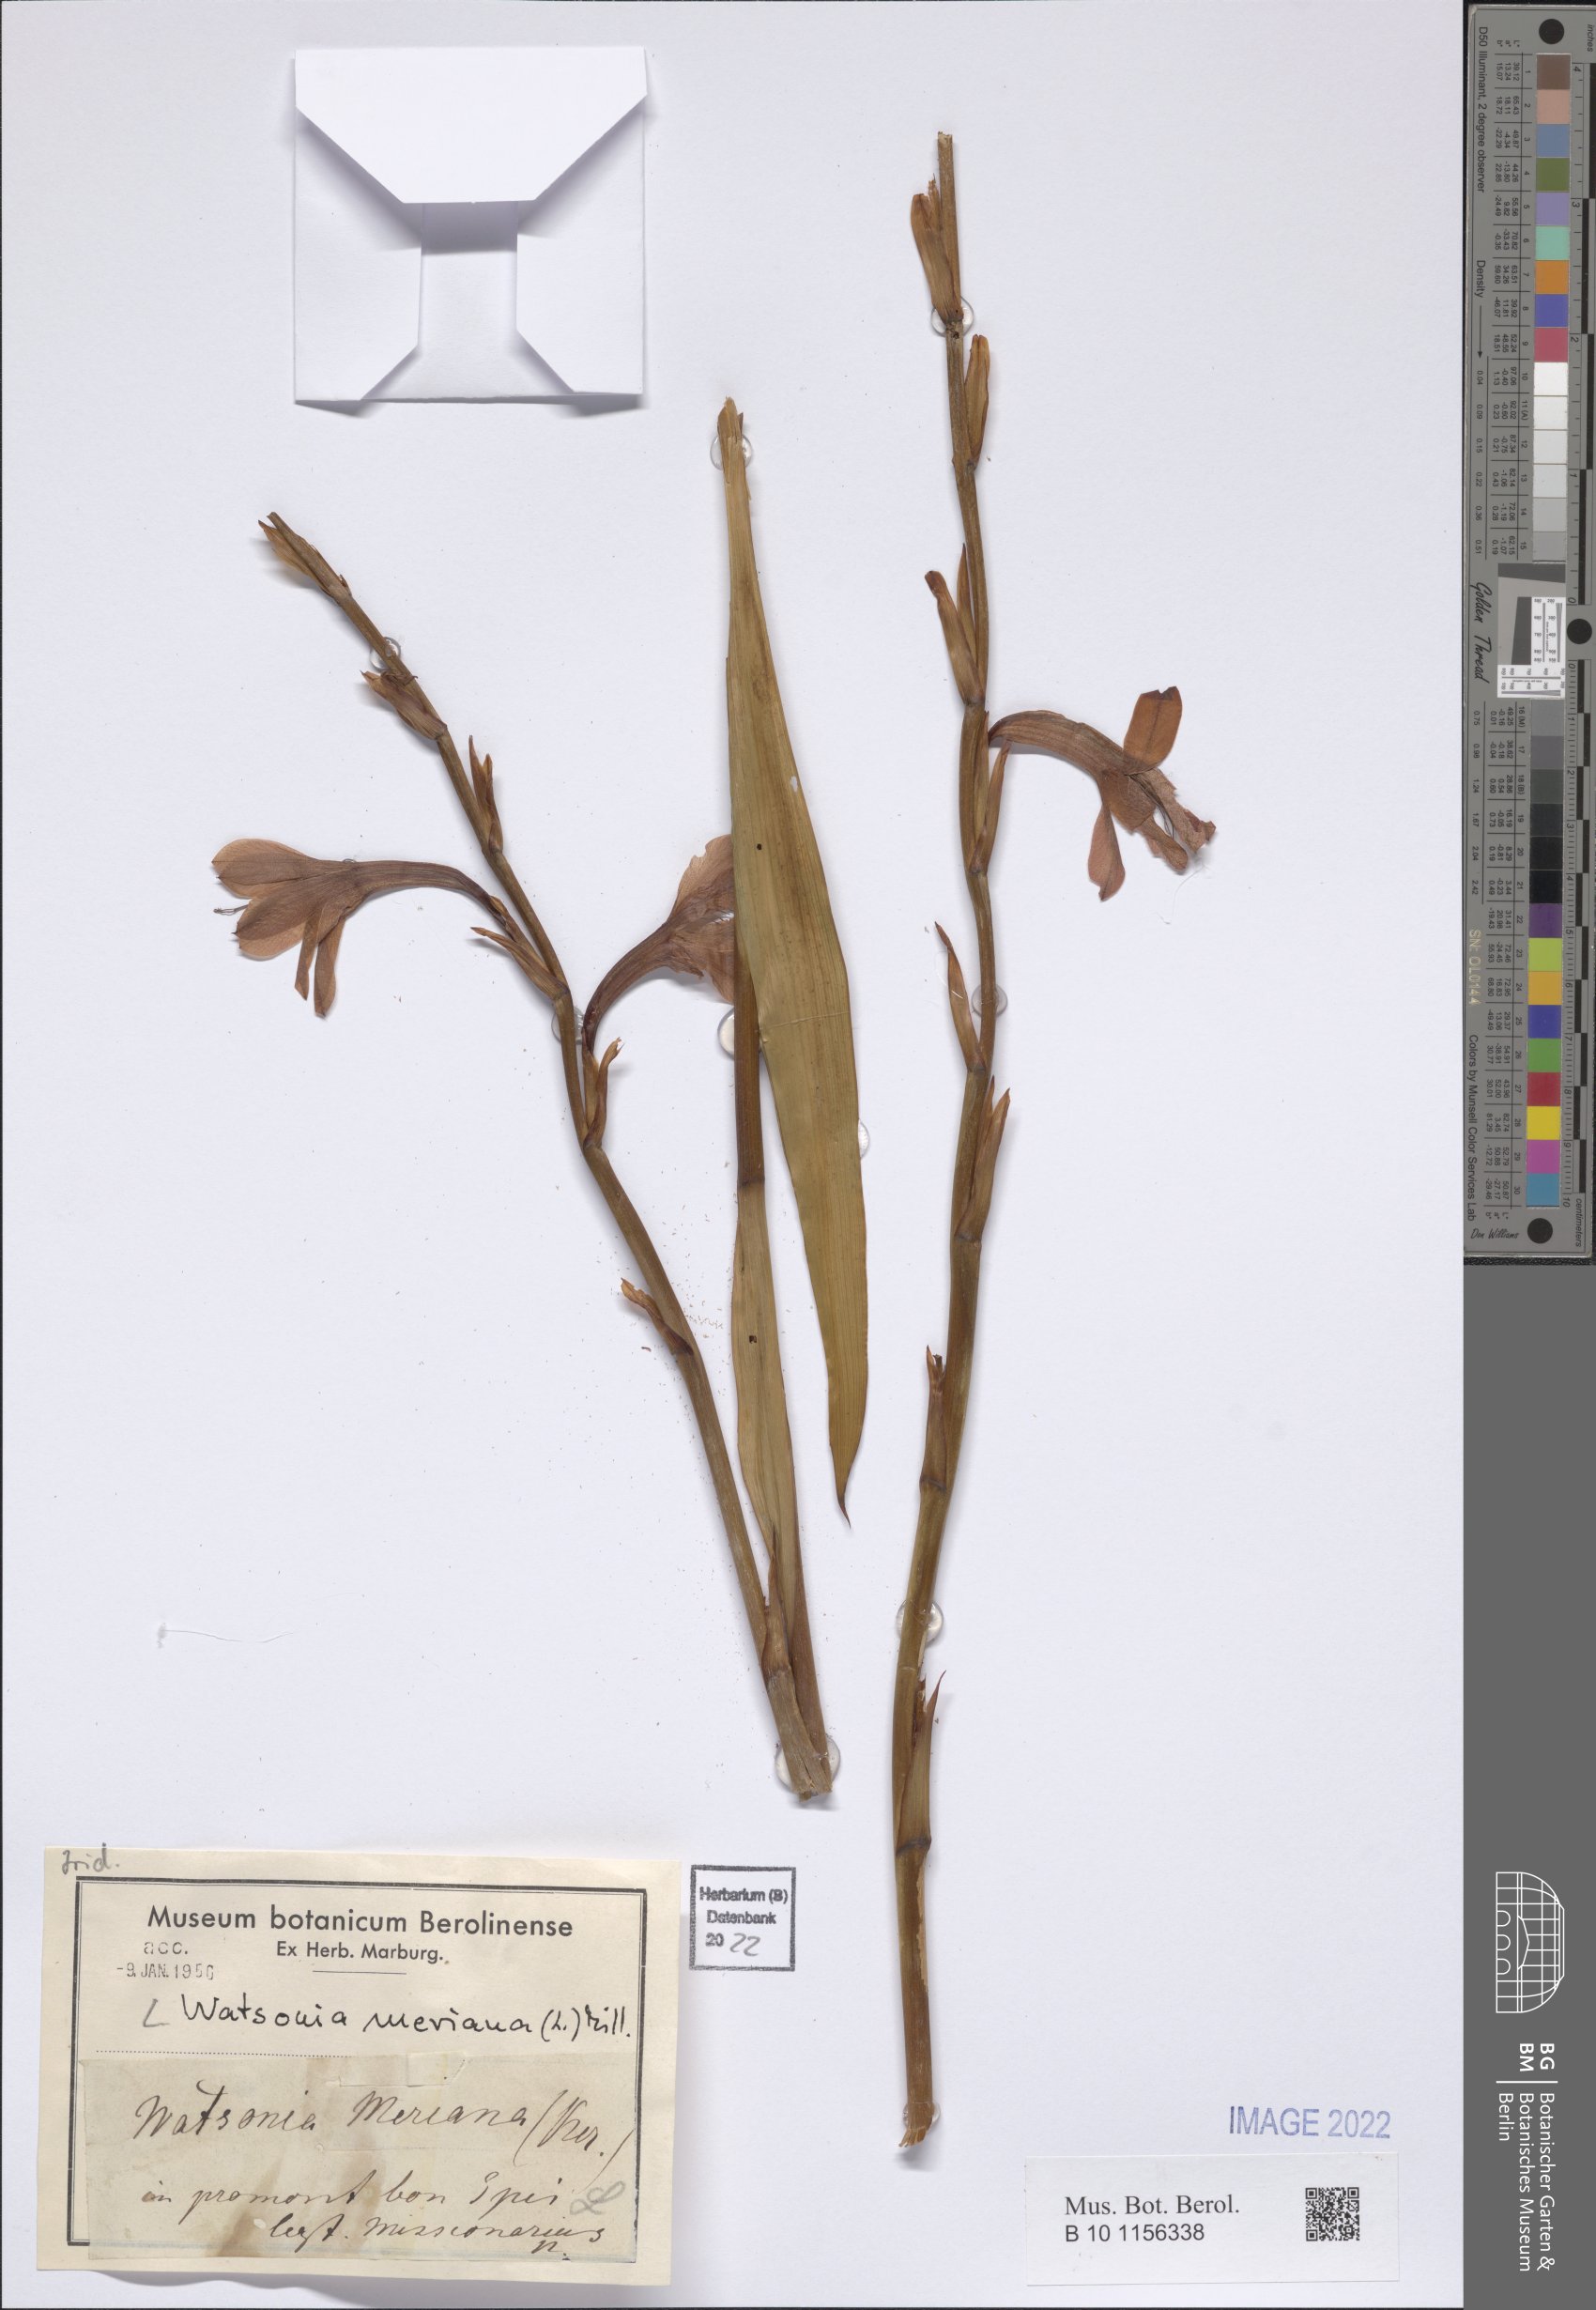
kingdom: Plantae
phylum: Tracheophyta
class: Liliopsida
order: Asparagales
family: Iridaceae
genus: Watsonia
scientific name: Watsonia meriana
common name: Bulbil bugle-lily
